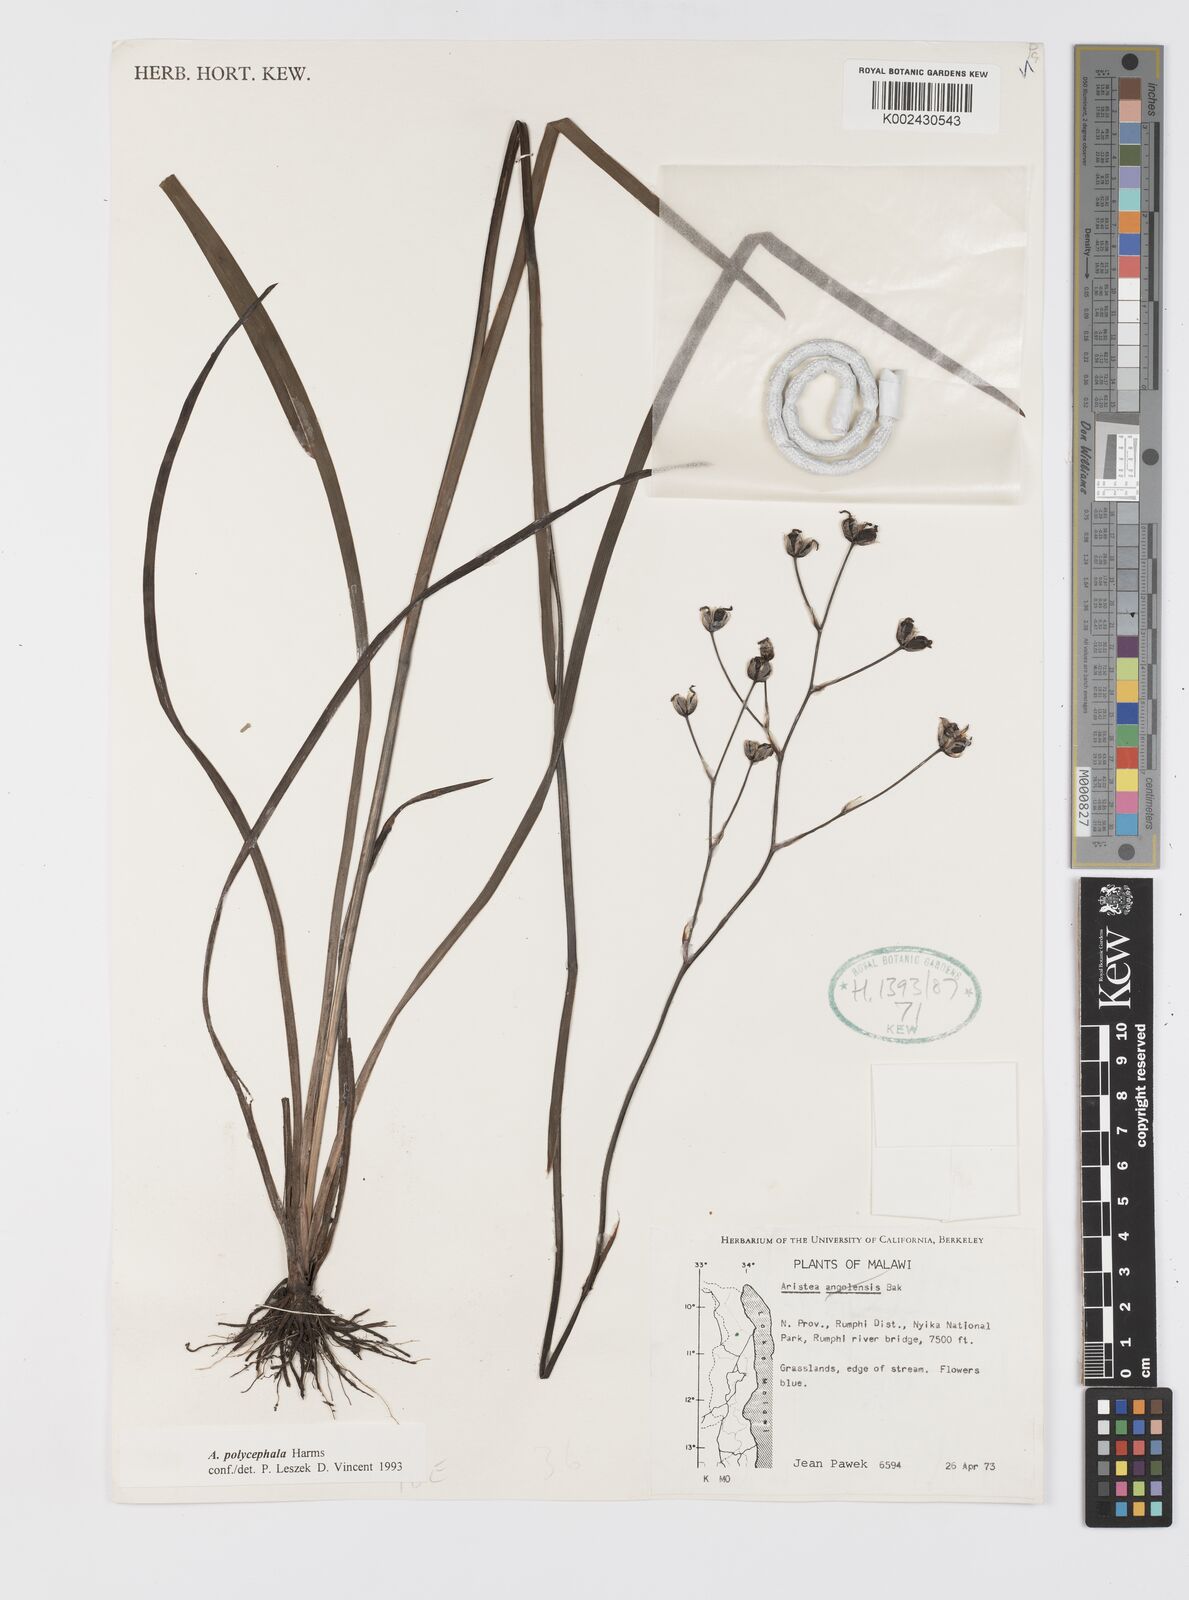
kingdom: Plantae
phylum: Tracheophyta
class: Liliopsida
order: Asparagales
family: Iridaceae
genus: Aristea
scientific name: Aristea polycephala
